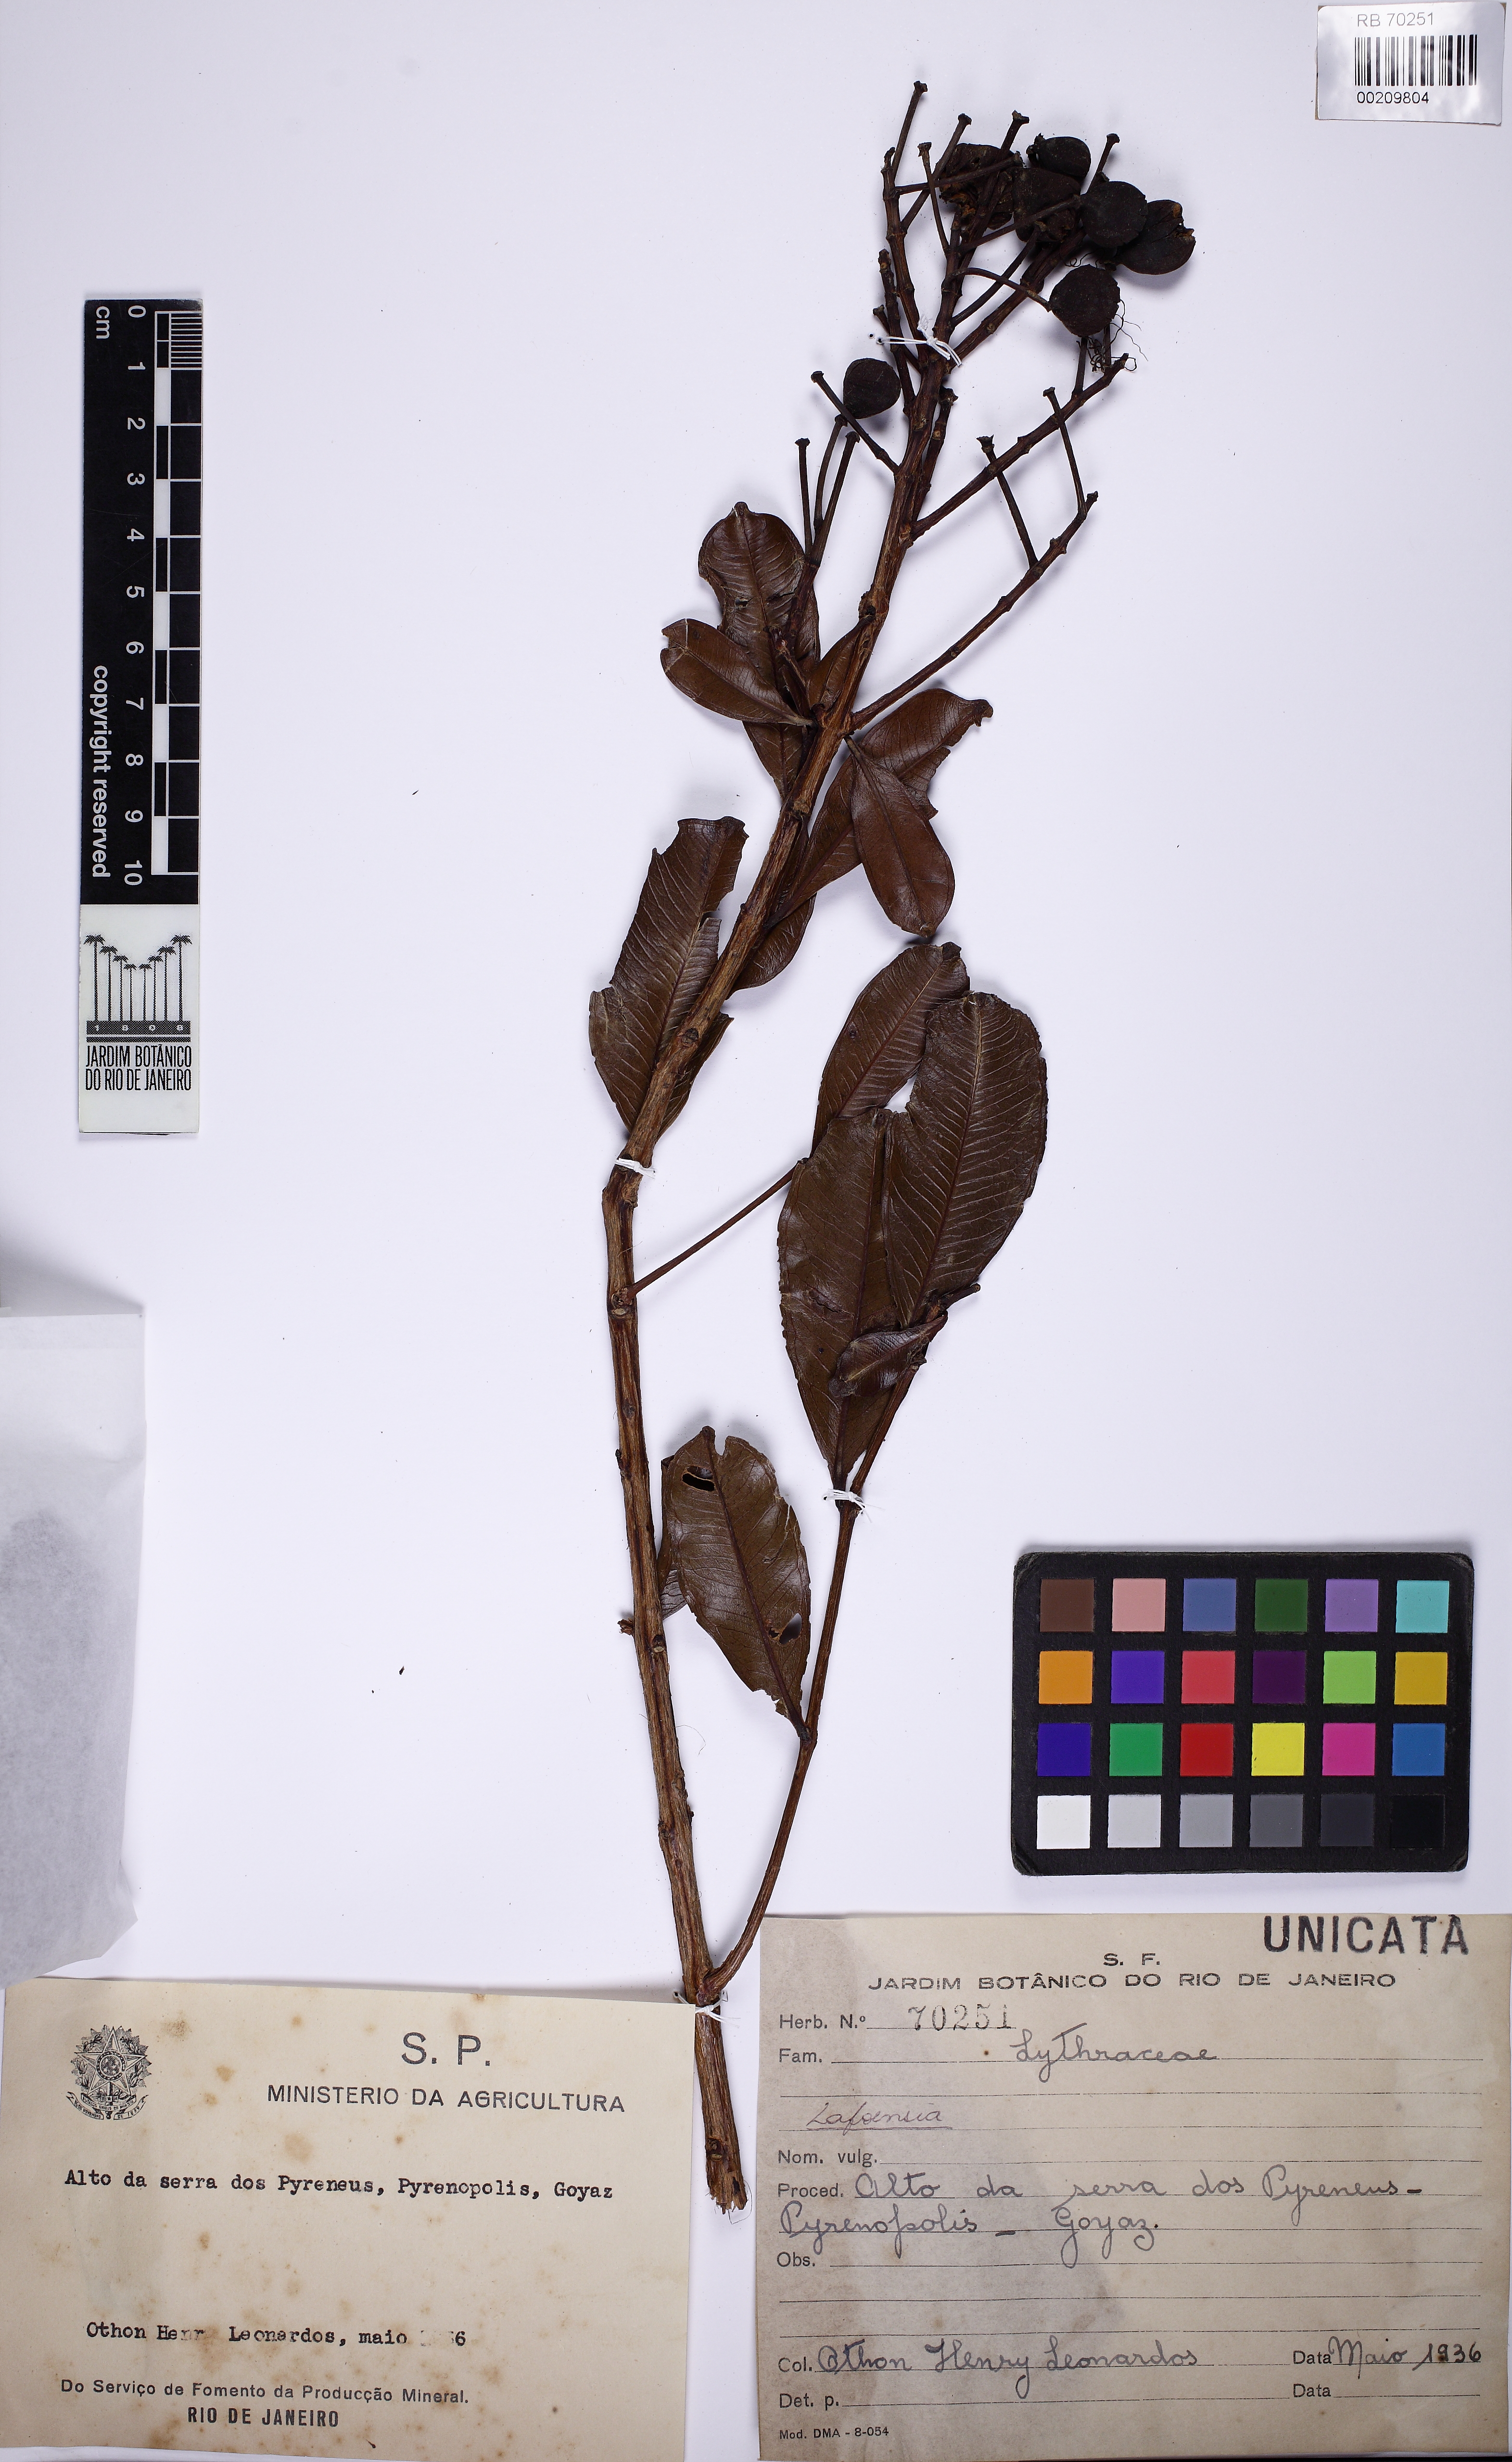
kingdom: Plantae
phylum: Tracheophyta
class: Magnoliopsida
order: Myrtales
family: Lythraceae
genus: Lafoensia
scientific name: Lafoensia
